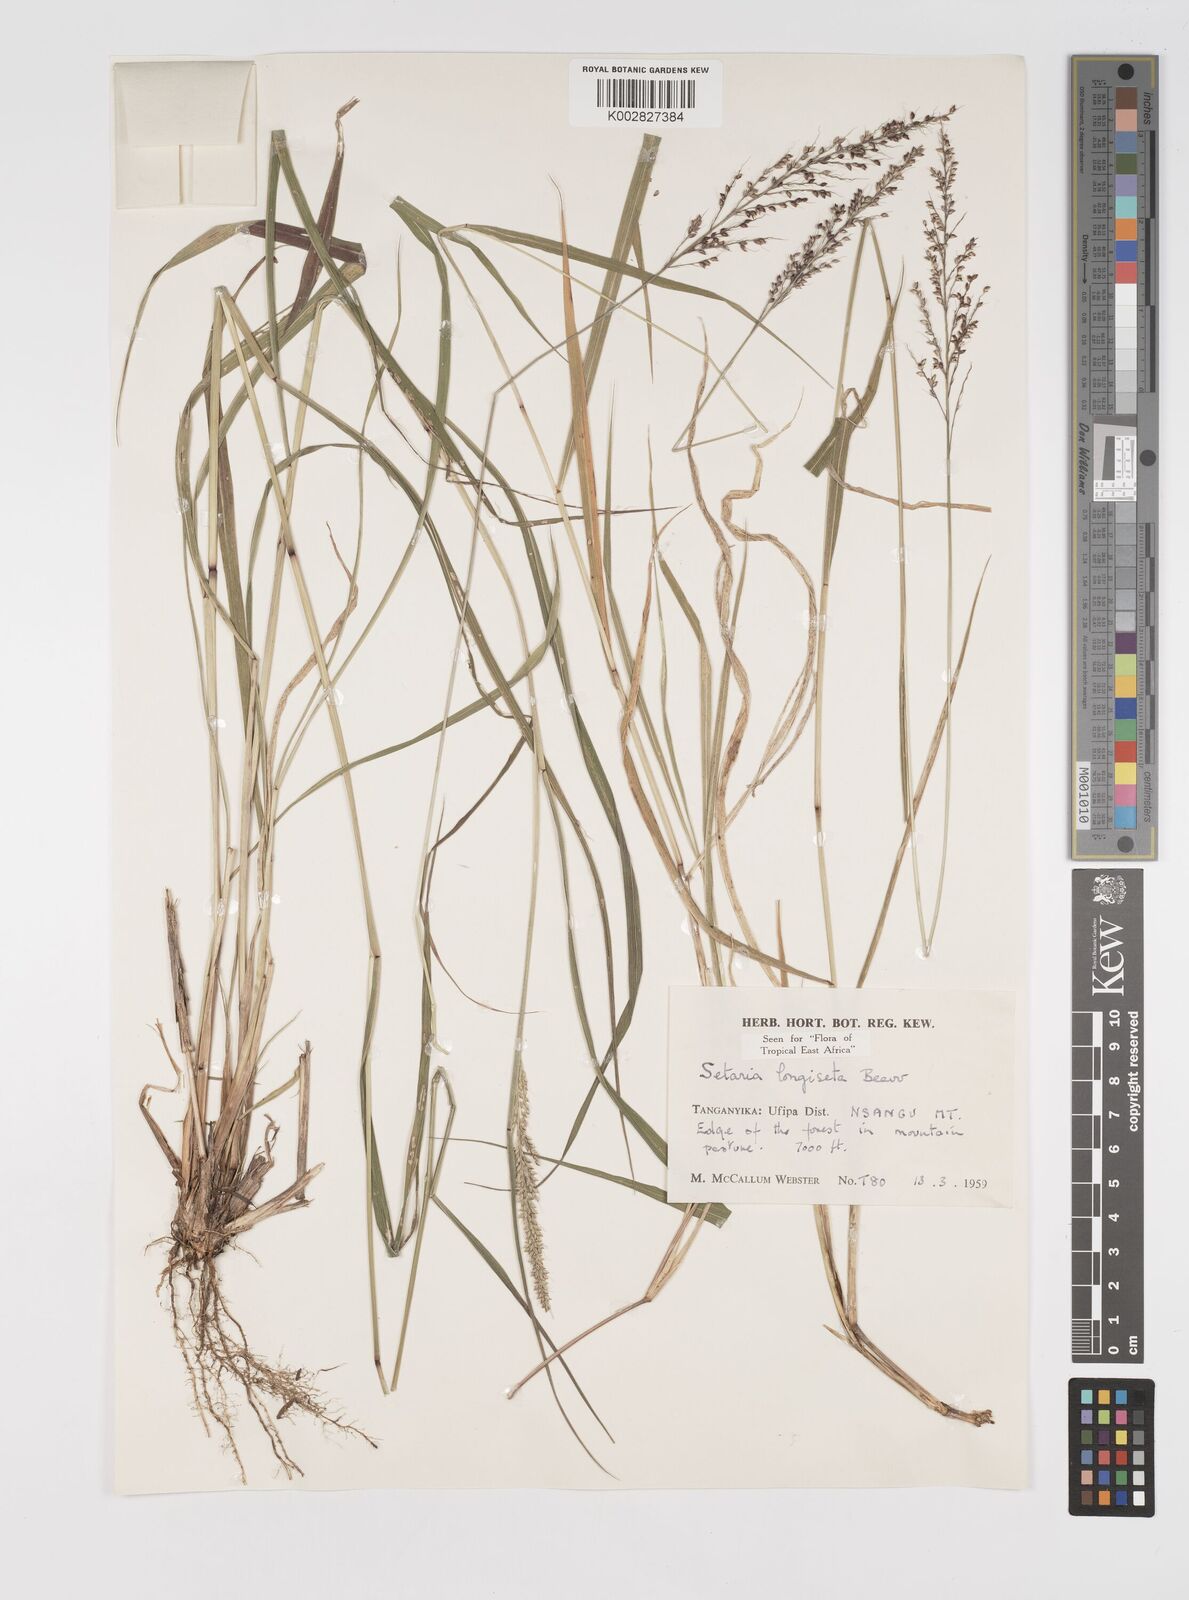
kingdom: Plantae
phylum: Tracheophyta
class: Liliopsida
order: Poales
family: Poaceae
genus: Setaria
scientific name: Setaria longiseta
